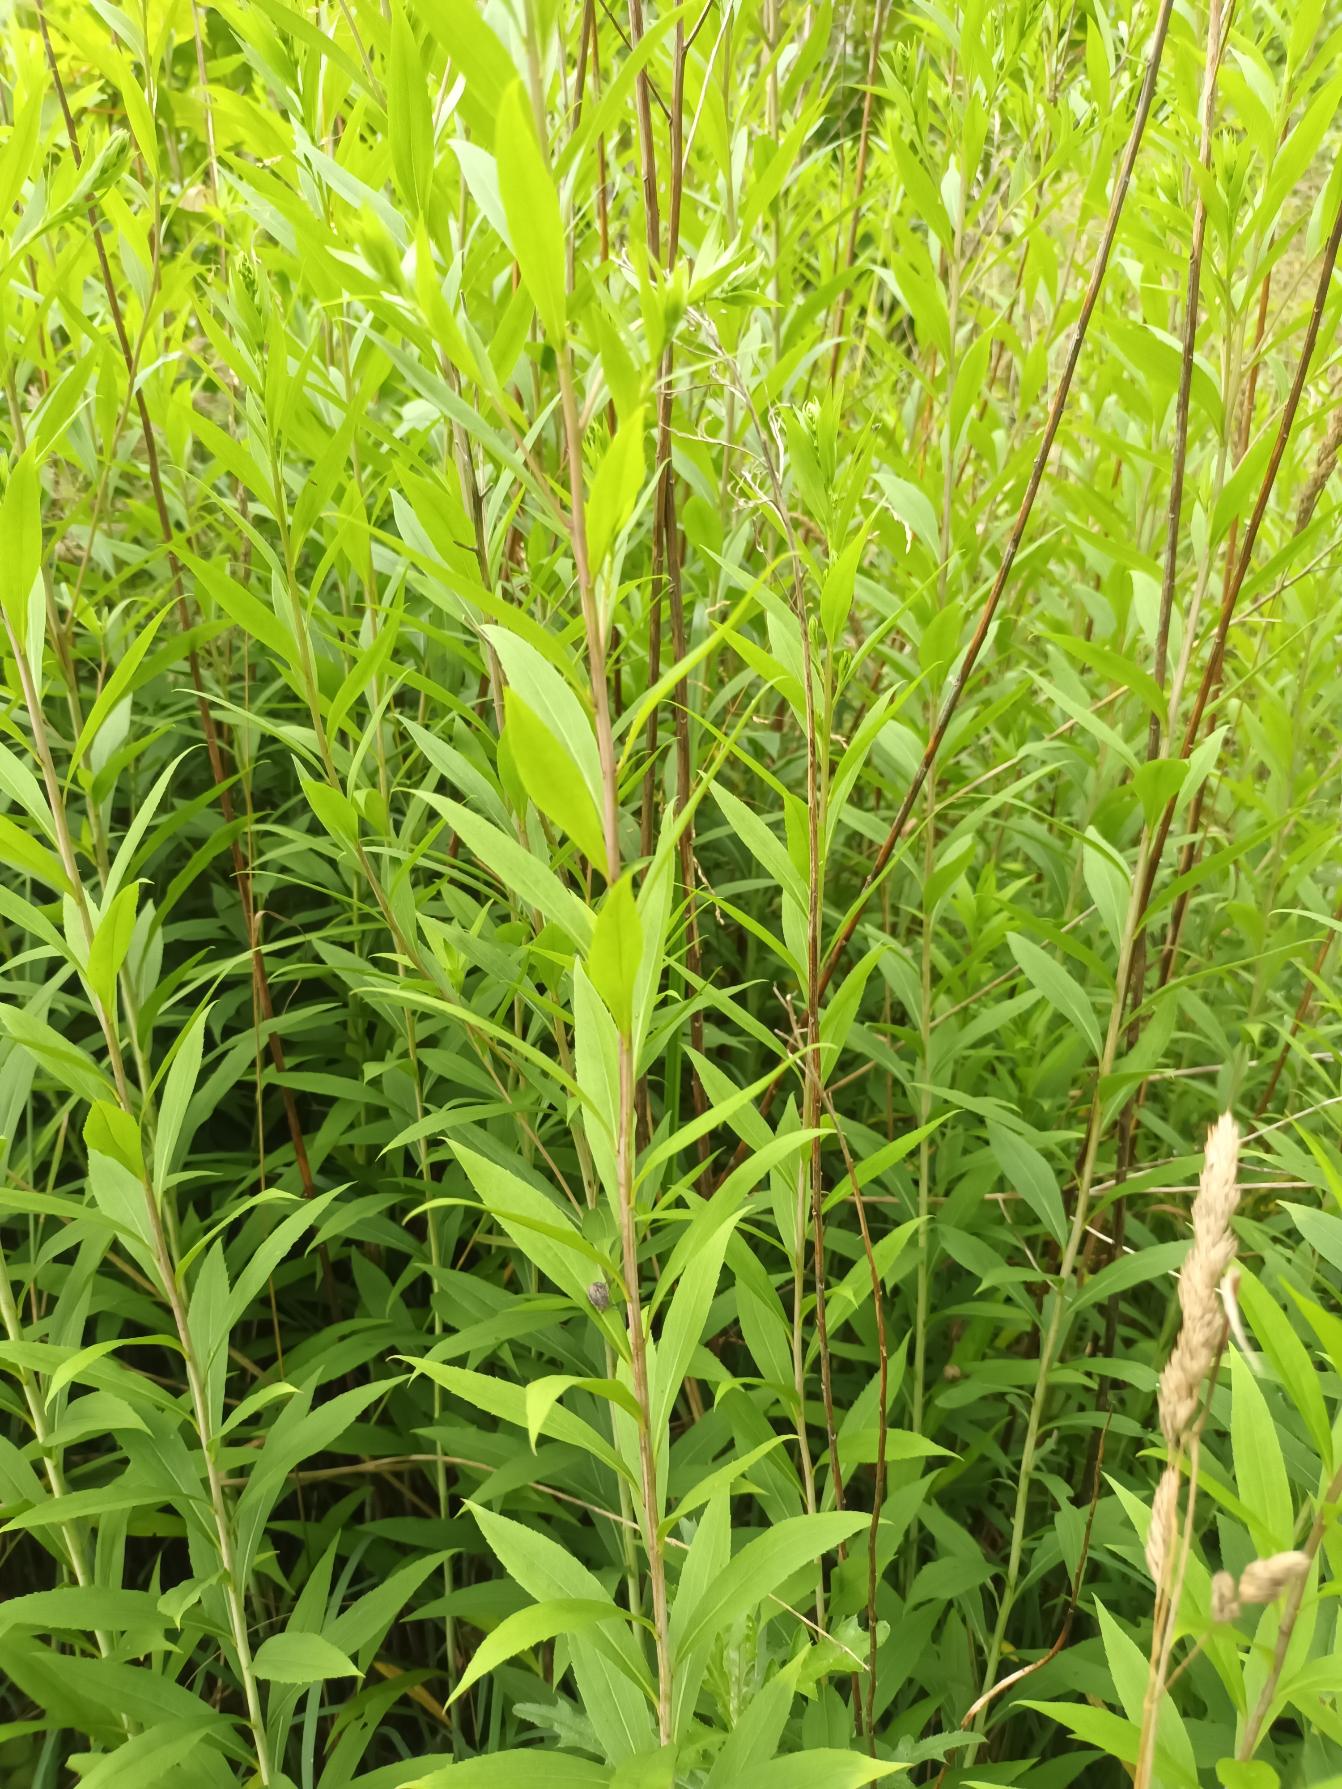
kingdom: Plantae
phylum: Tracheophyta
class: Magnoliopsida
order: Asterales
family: Asteraceae
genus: Solidago
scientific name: Solidago gigantea
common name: Sildig gyldenris
